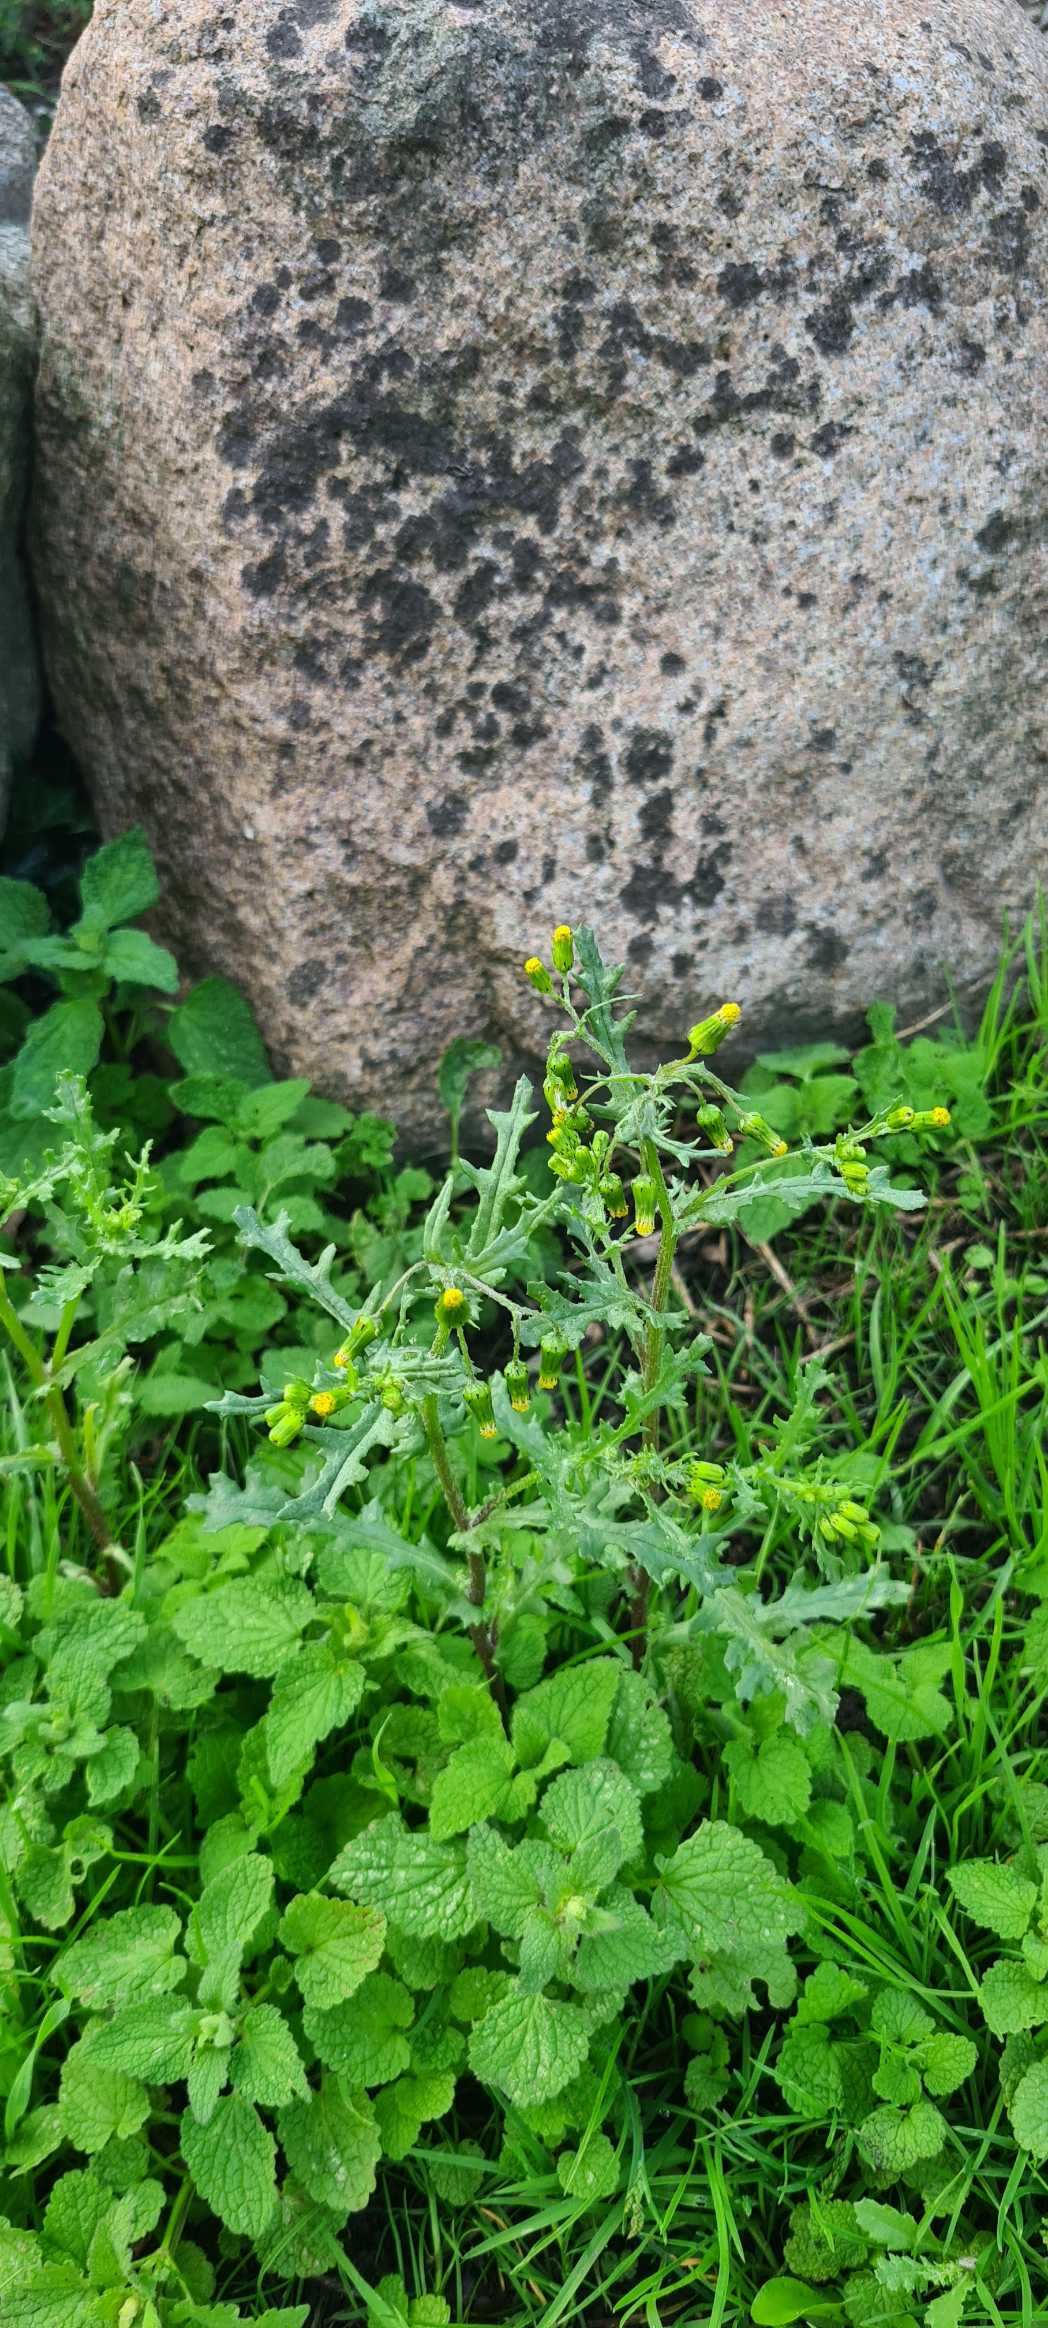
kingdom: Plantae
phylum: Tracheophyta
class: Magnoliopsida
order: Asterales
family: Asteraceae
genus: Senecio
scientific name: Senecio vulgaris
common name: Almindelig brandbæger
